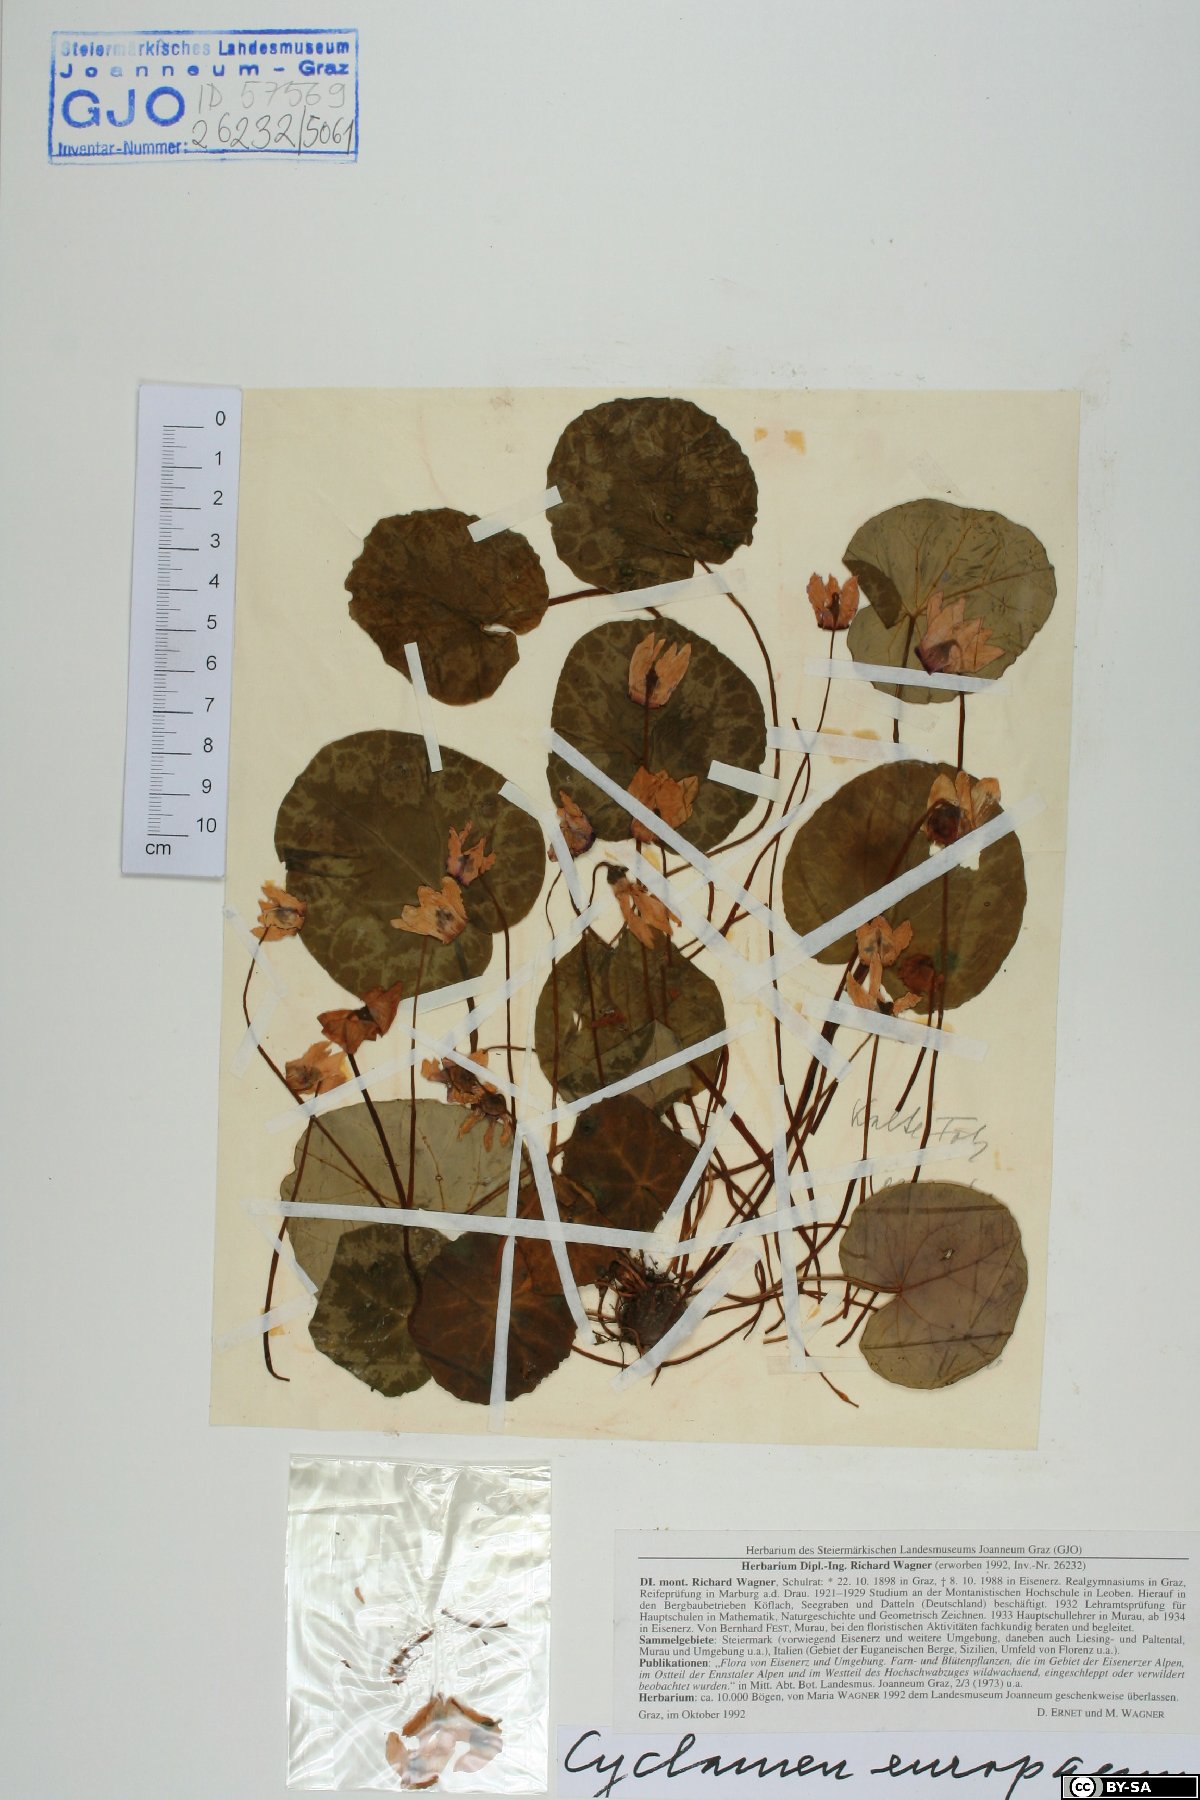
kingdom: Plantae
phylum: Tracheophyta
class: Magnoliopsida
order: Ericales
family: Primulaceae
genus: Cyclamen
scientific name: Cyclamen purpurascens
